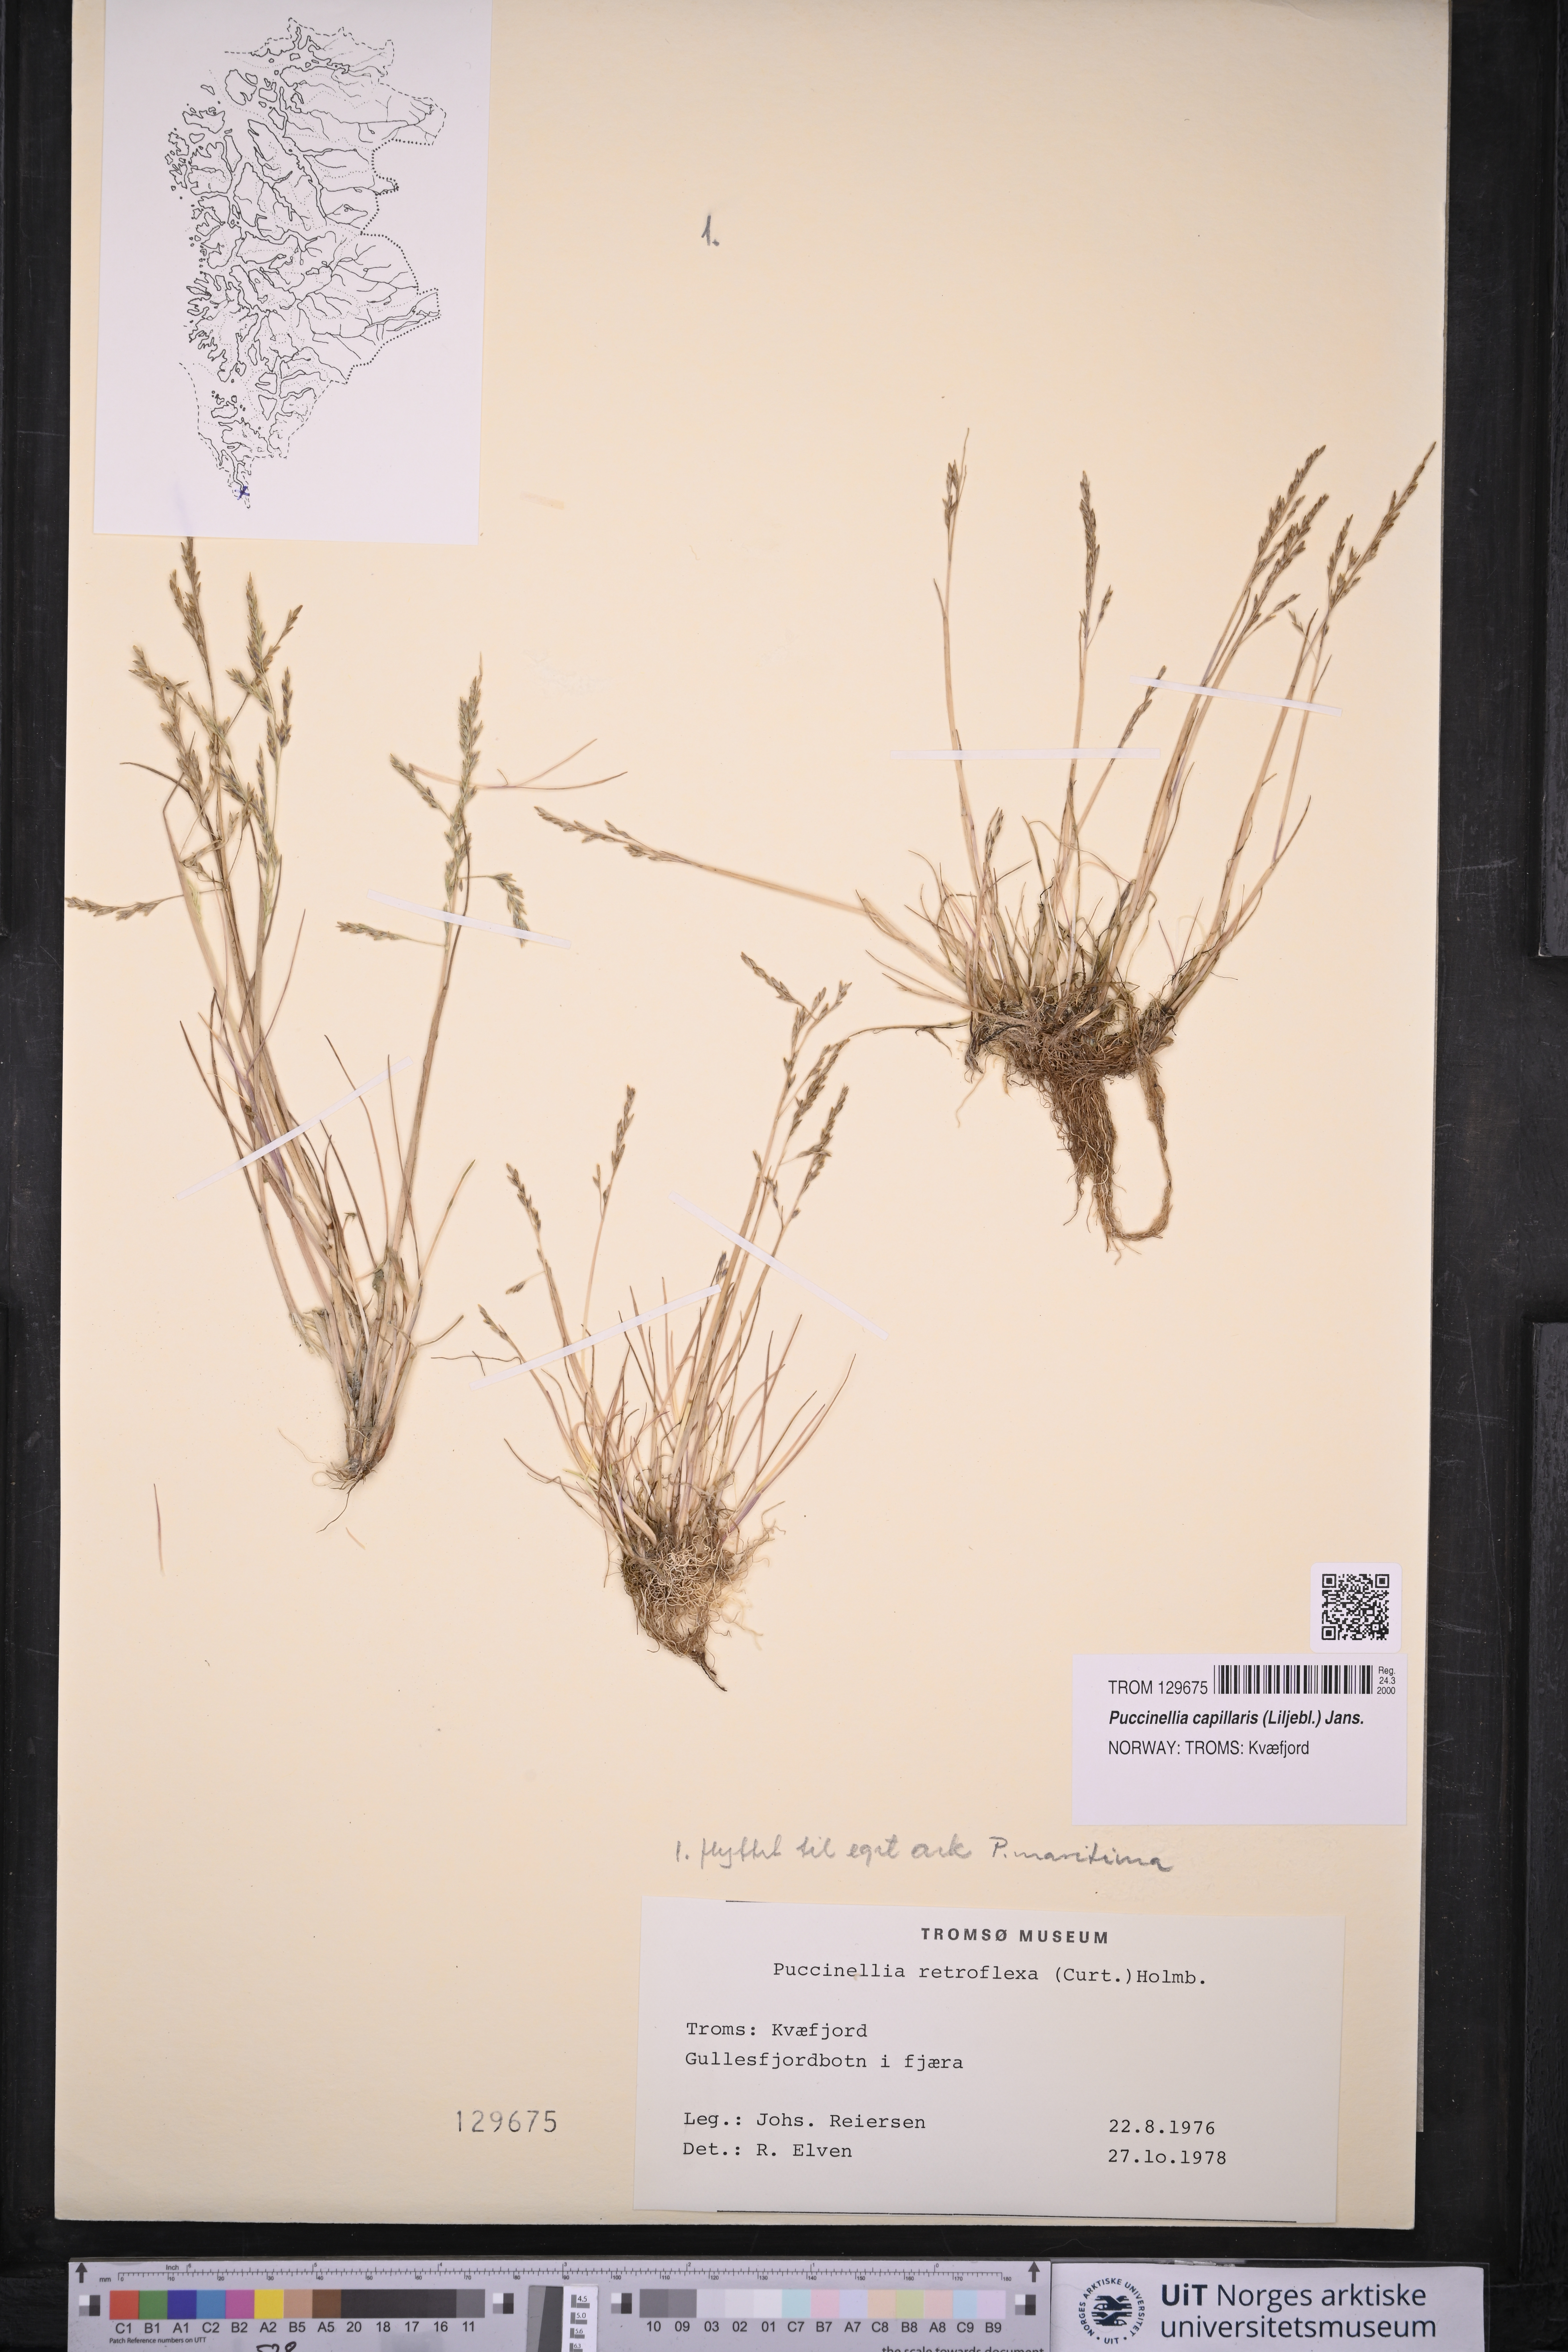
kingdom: Plantae
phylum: Tracheophyta
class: Liliopsida
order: Poales
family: Poaceae
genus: Puccinellia
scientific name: Puccinellia distans
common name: Weeping alkaligrass
